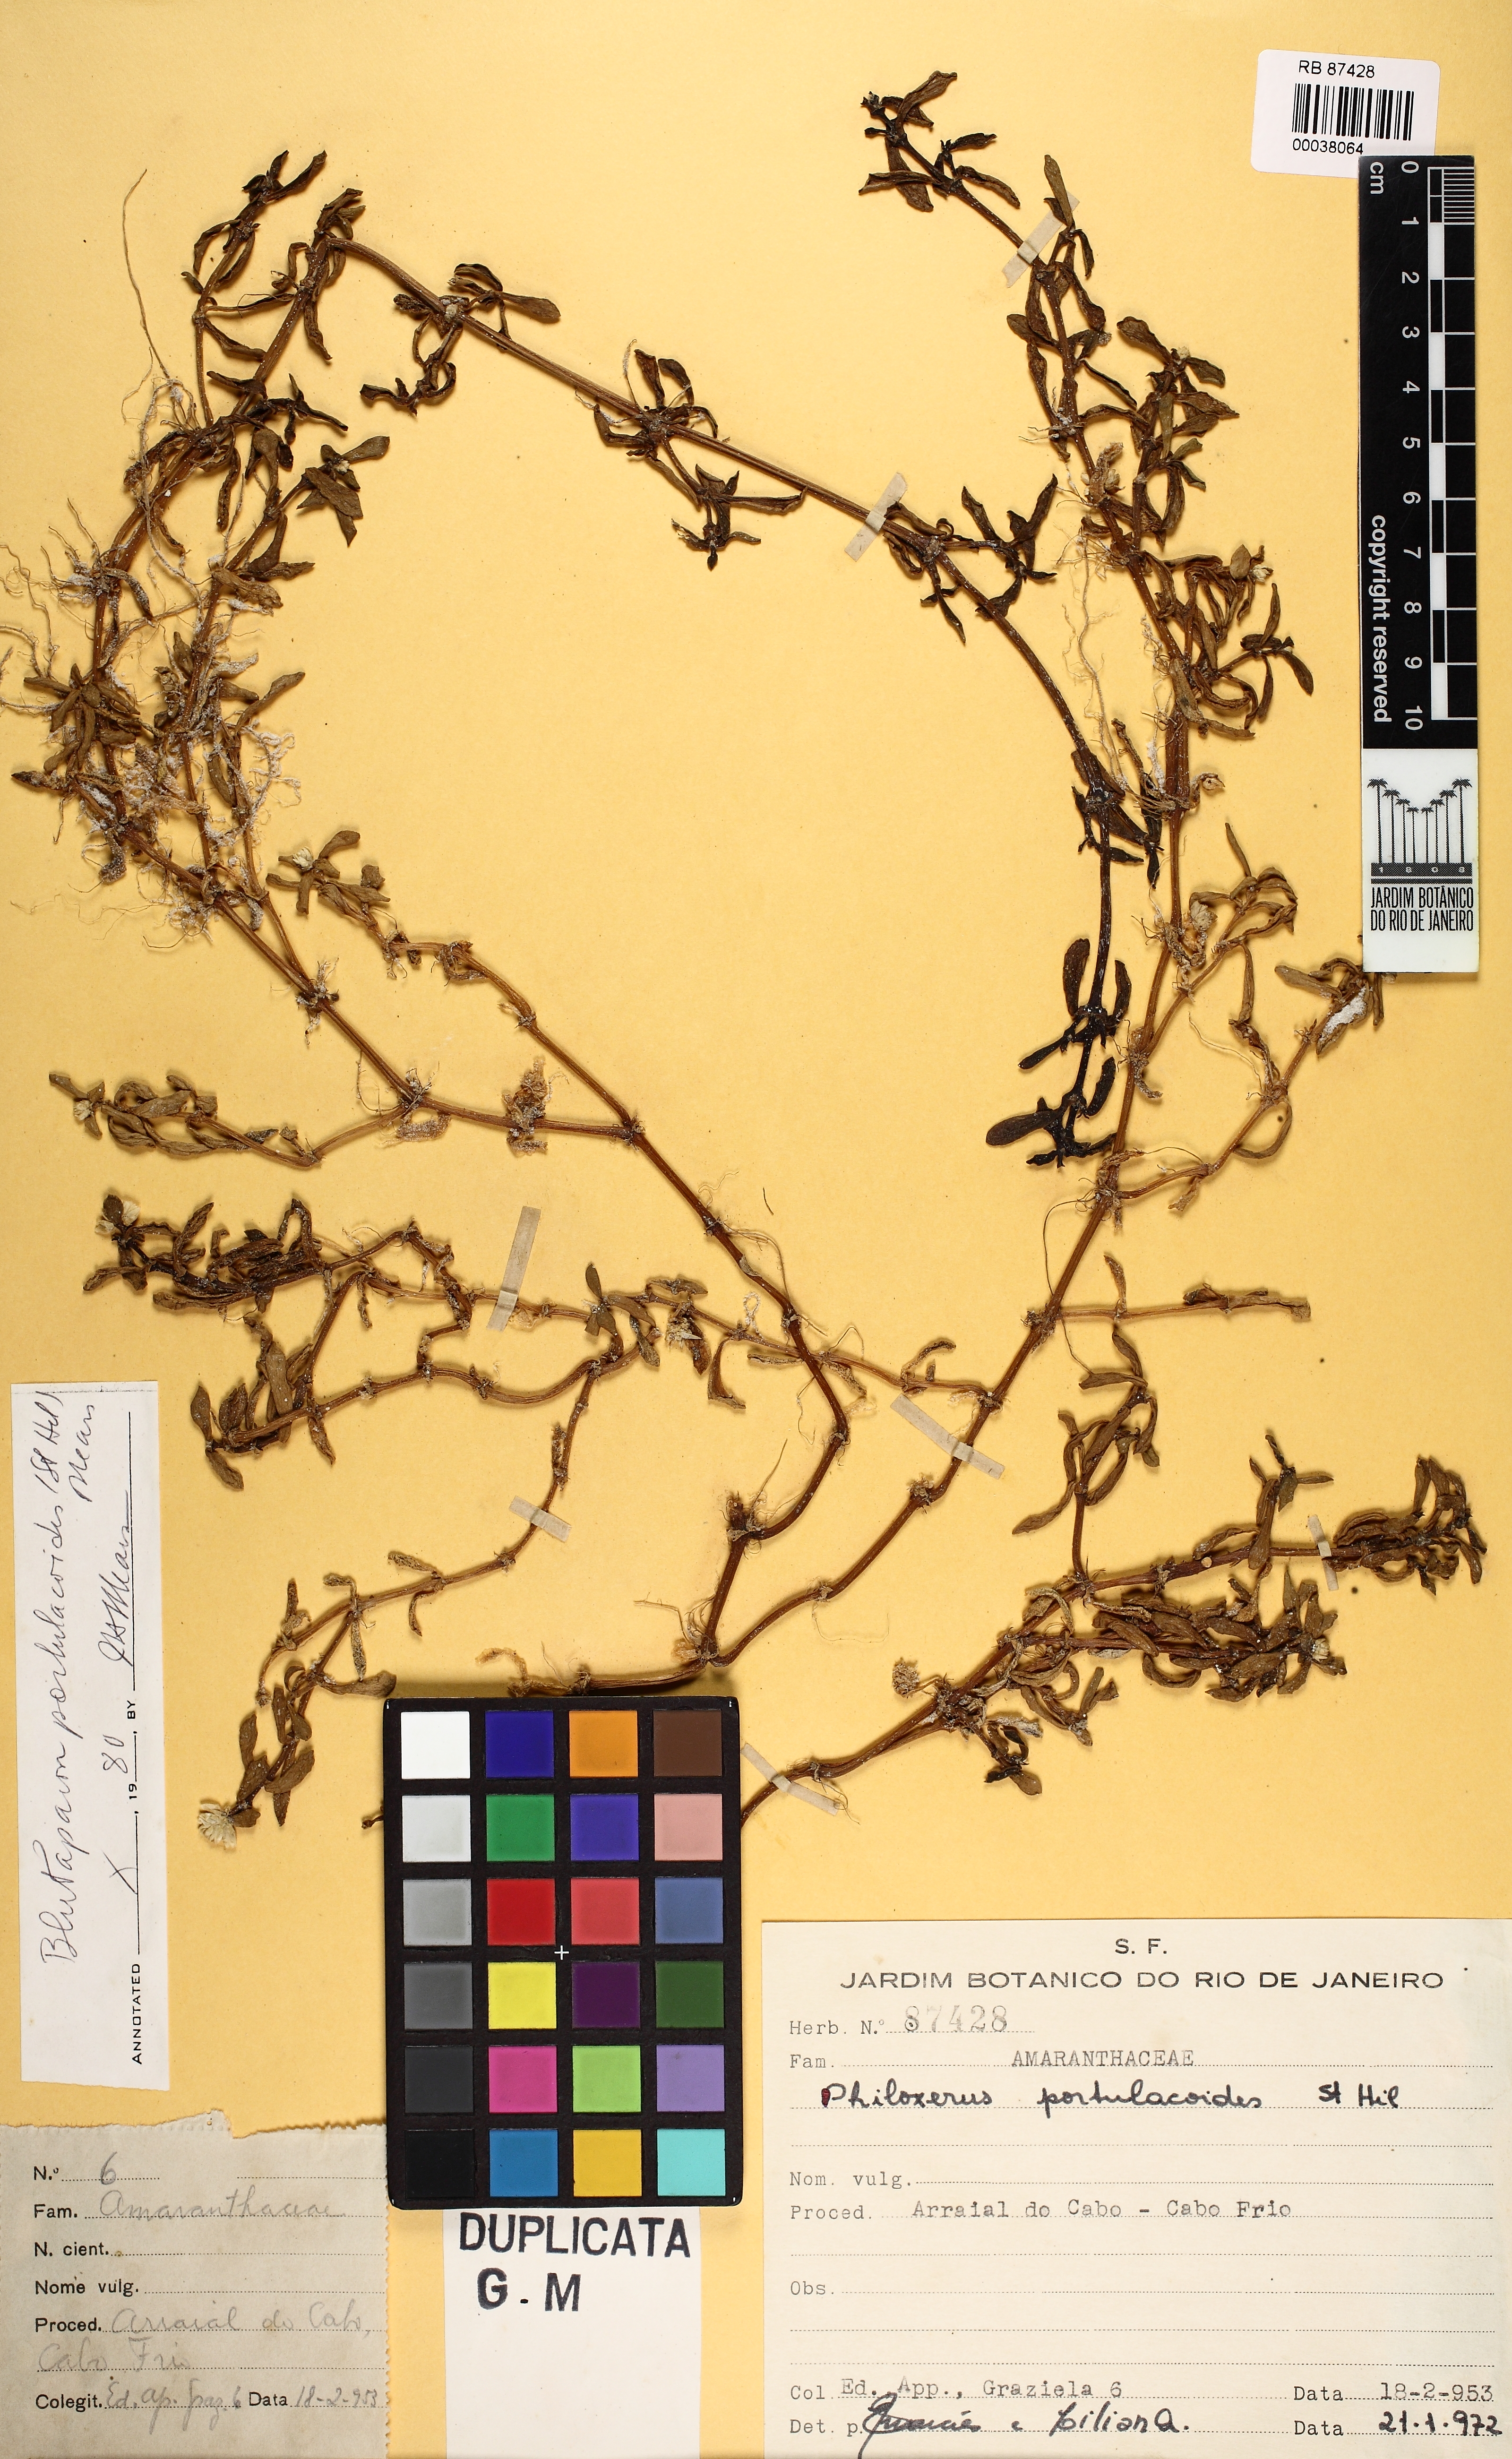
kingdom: Plantae
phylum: Tracheophyta
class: Magnoliopsida
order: Caryophyllales
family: Amaranthaceae
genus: Gomphrena
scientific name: Gomphrena portulacoides
